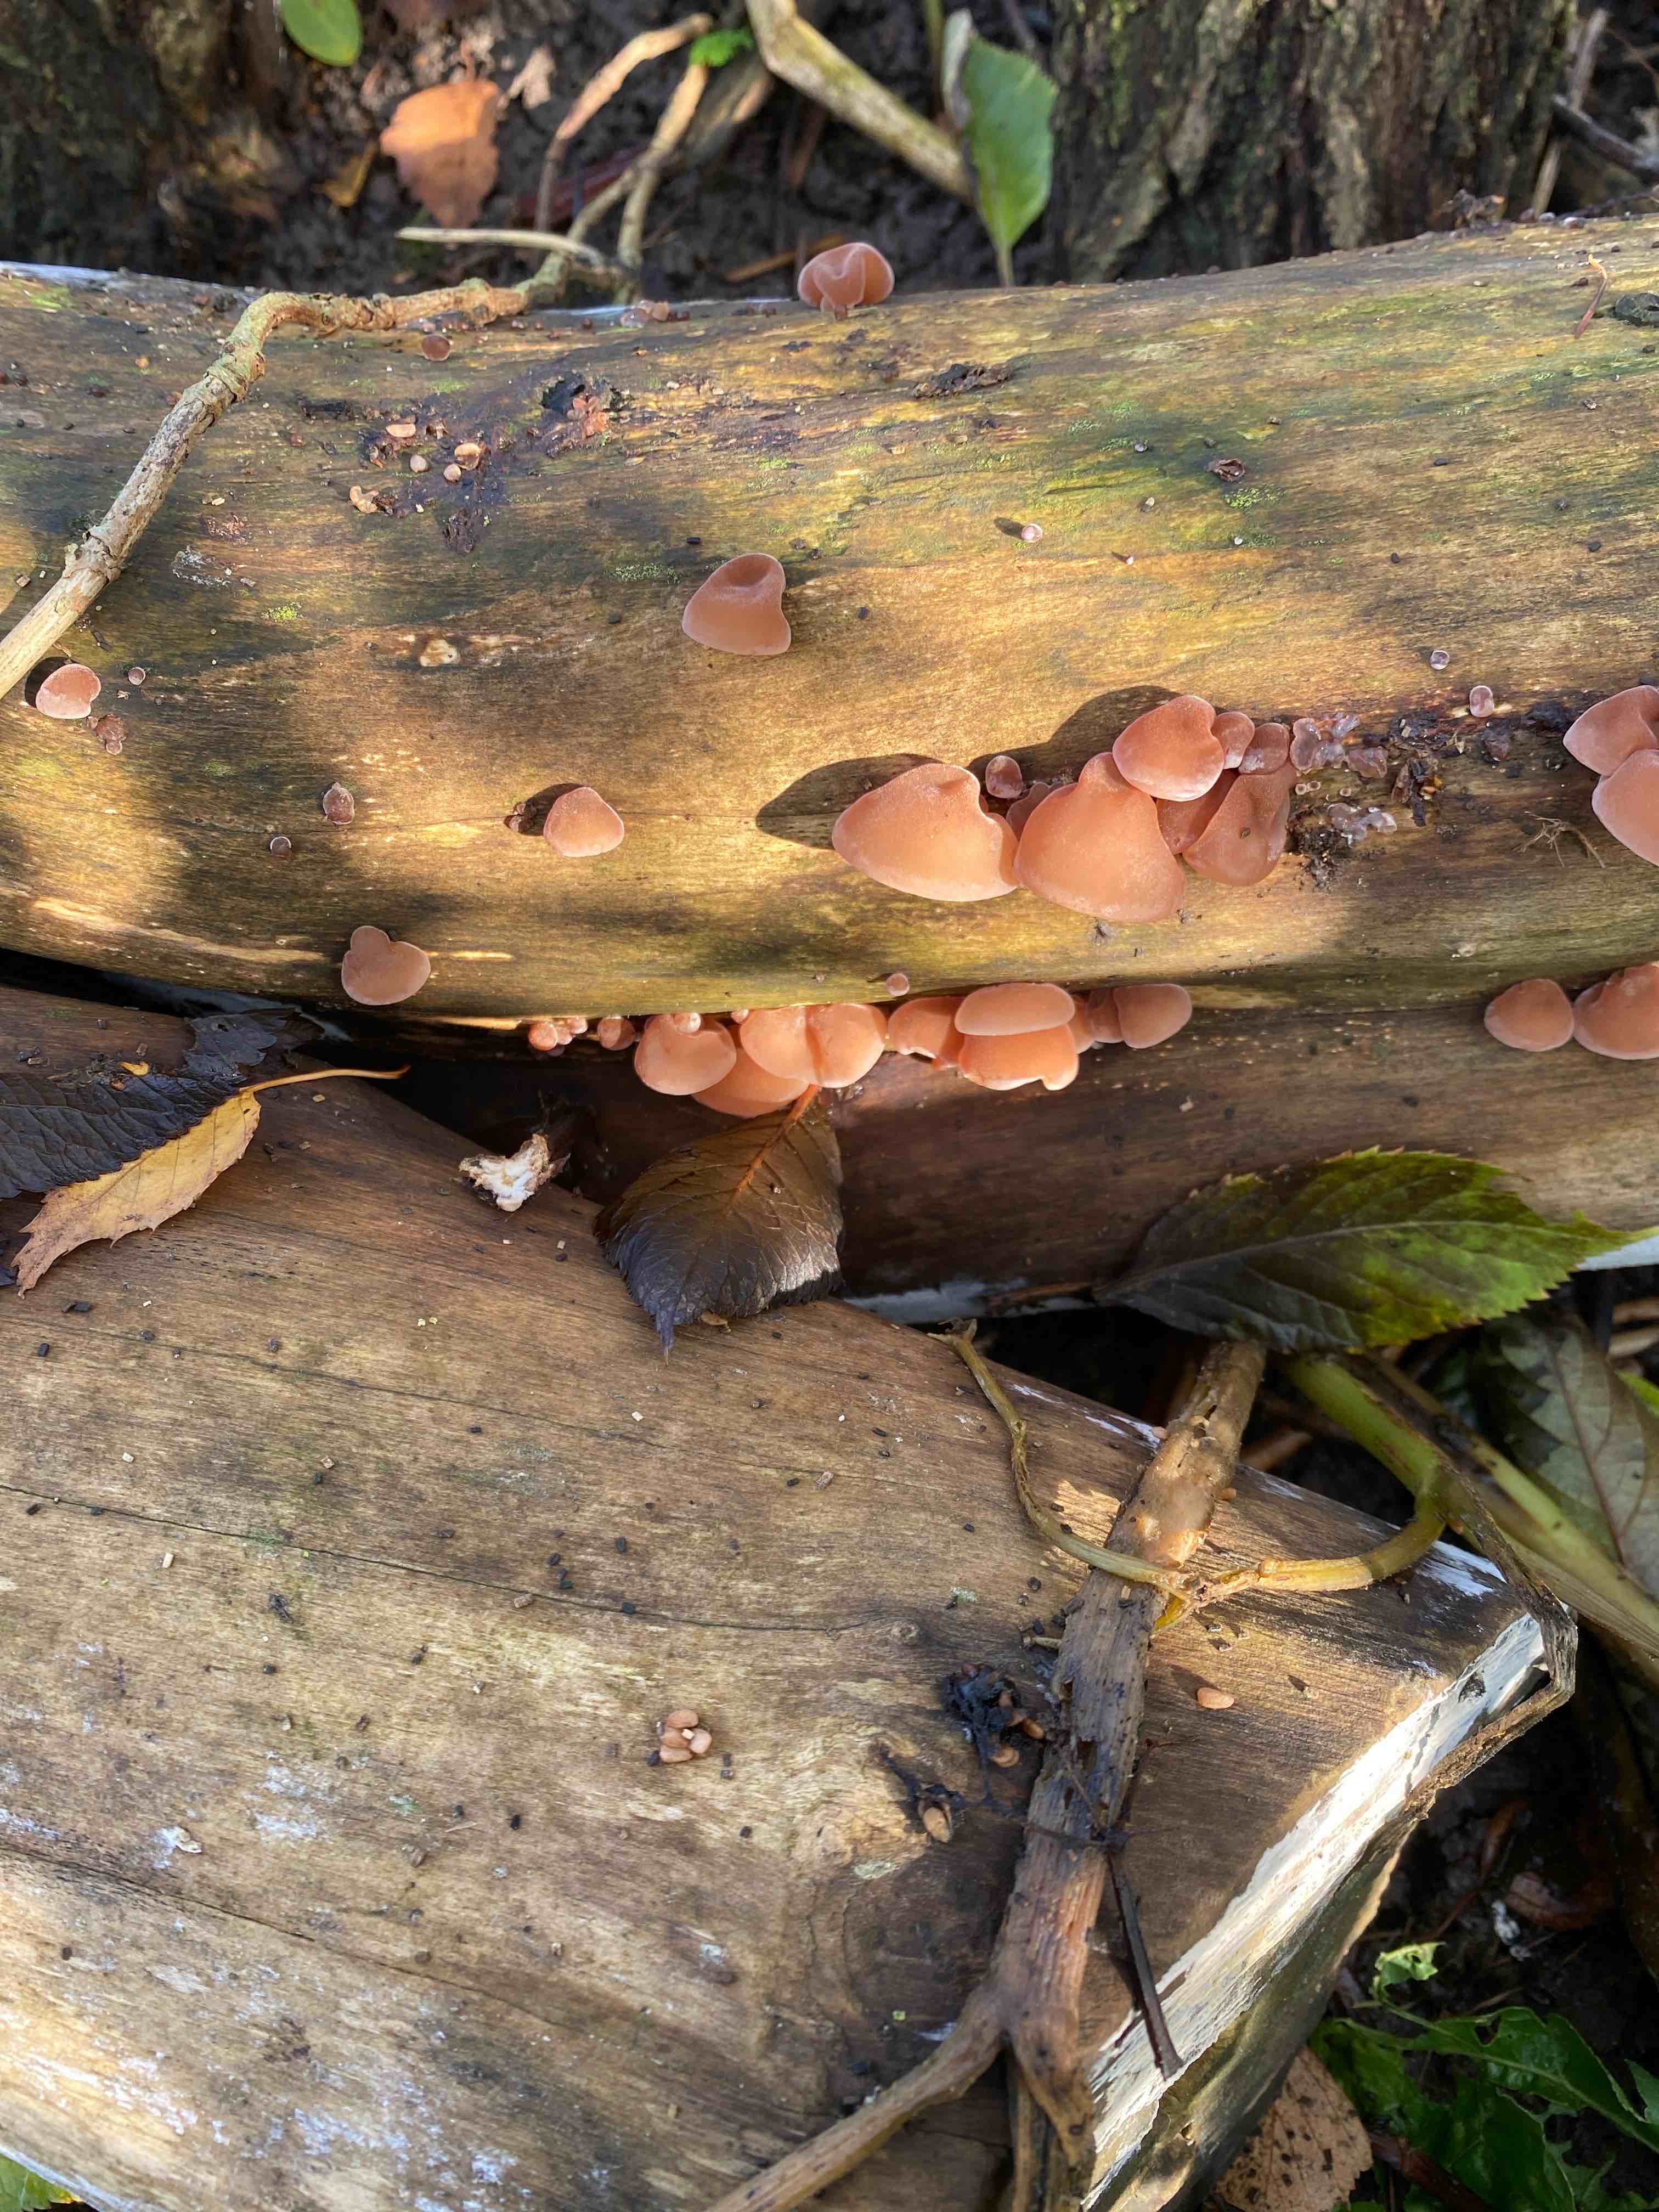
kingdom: Fungi
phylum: Basidiomycota
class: Agaricomycetes
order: Auriculariales
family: Auriculariaceae
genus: Auricularia
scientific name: Auricularia auricula-judae
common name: almindelig judasøre
